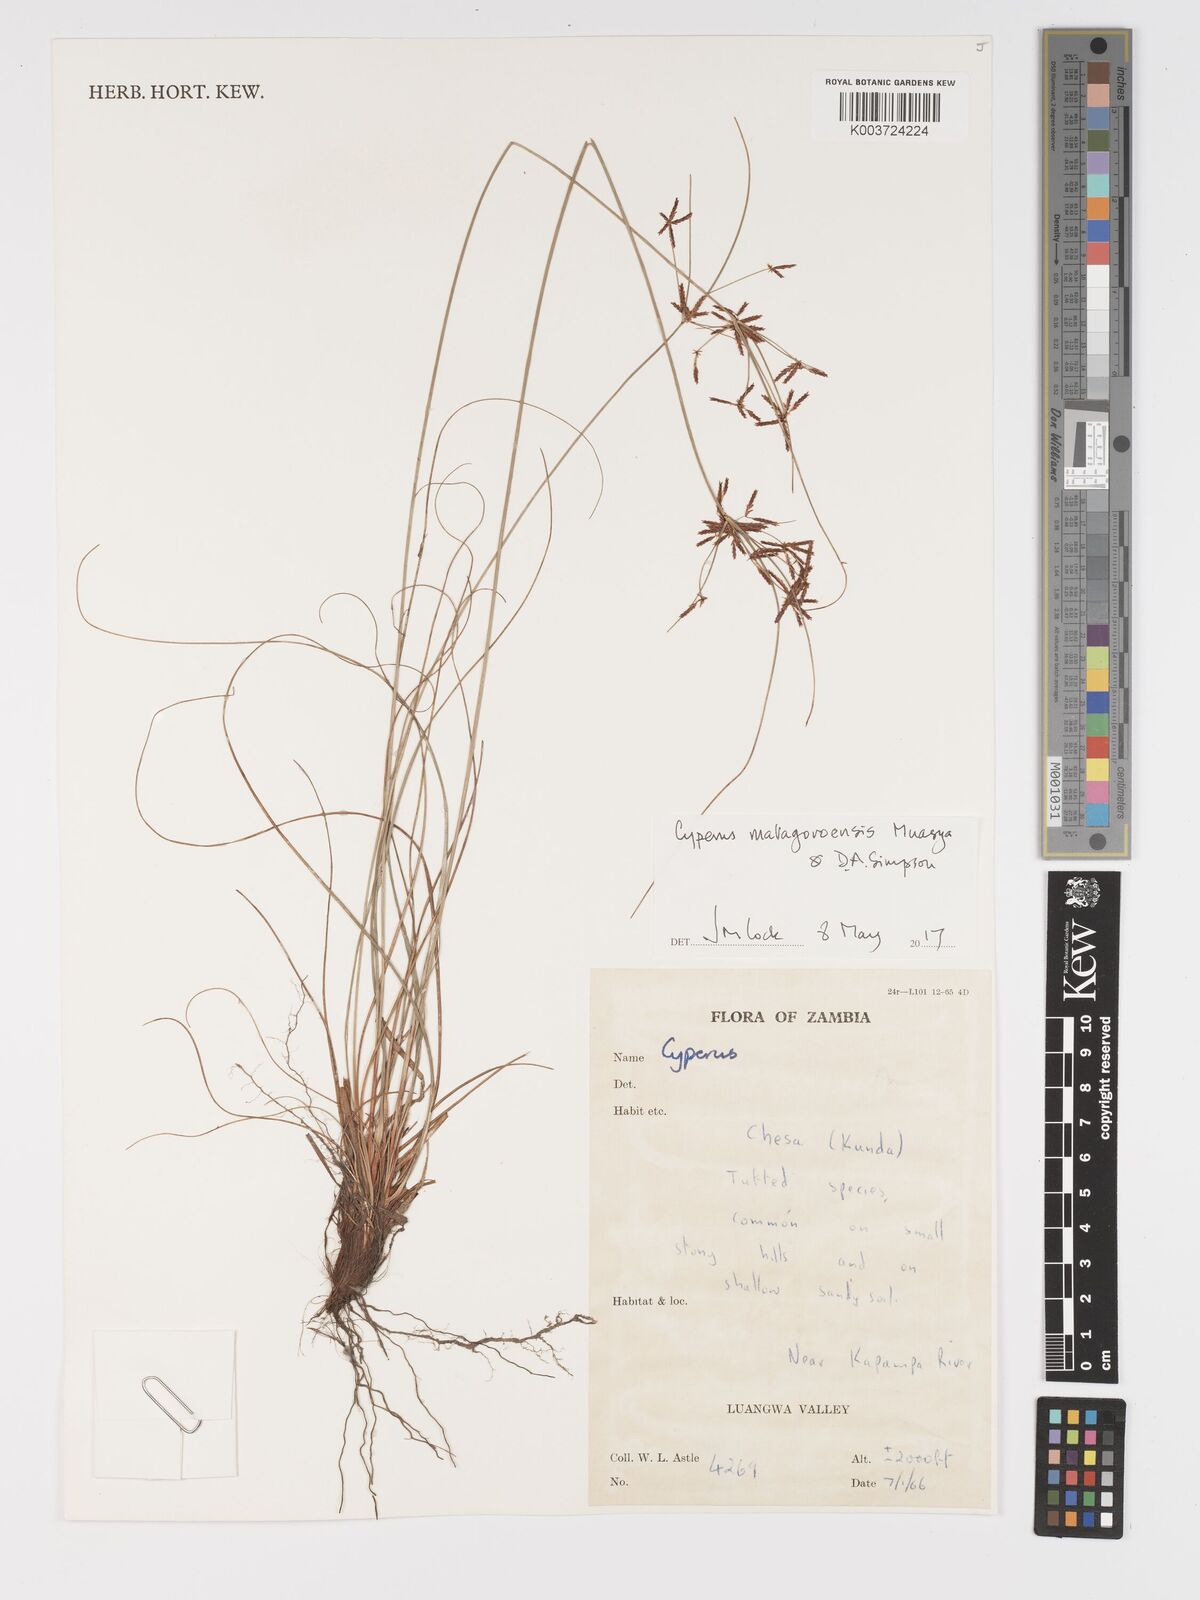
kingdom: Plantae
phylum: Tracheophyta
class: Liliopsida
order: Poales
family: Cyperaceae
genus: Cyperus
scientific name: Cyperus matagoroensis
